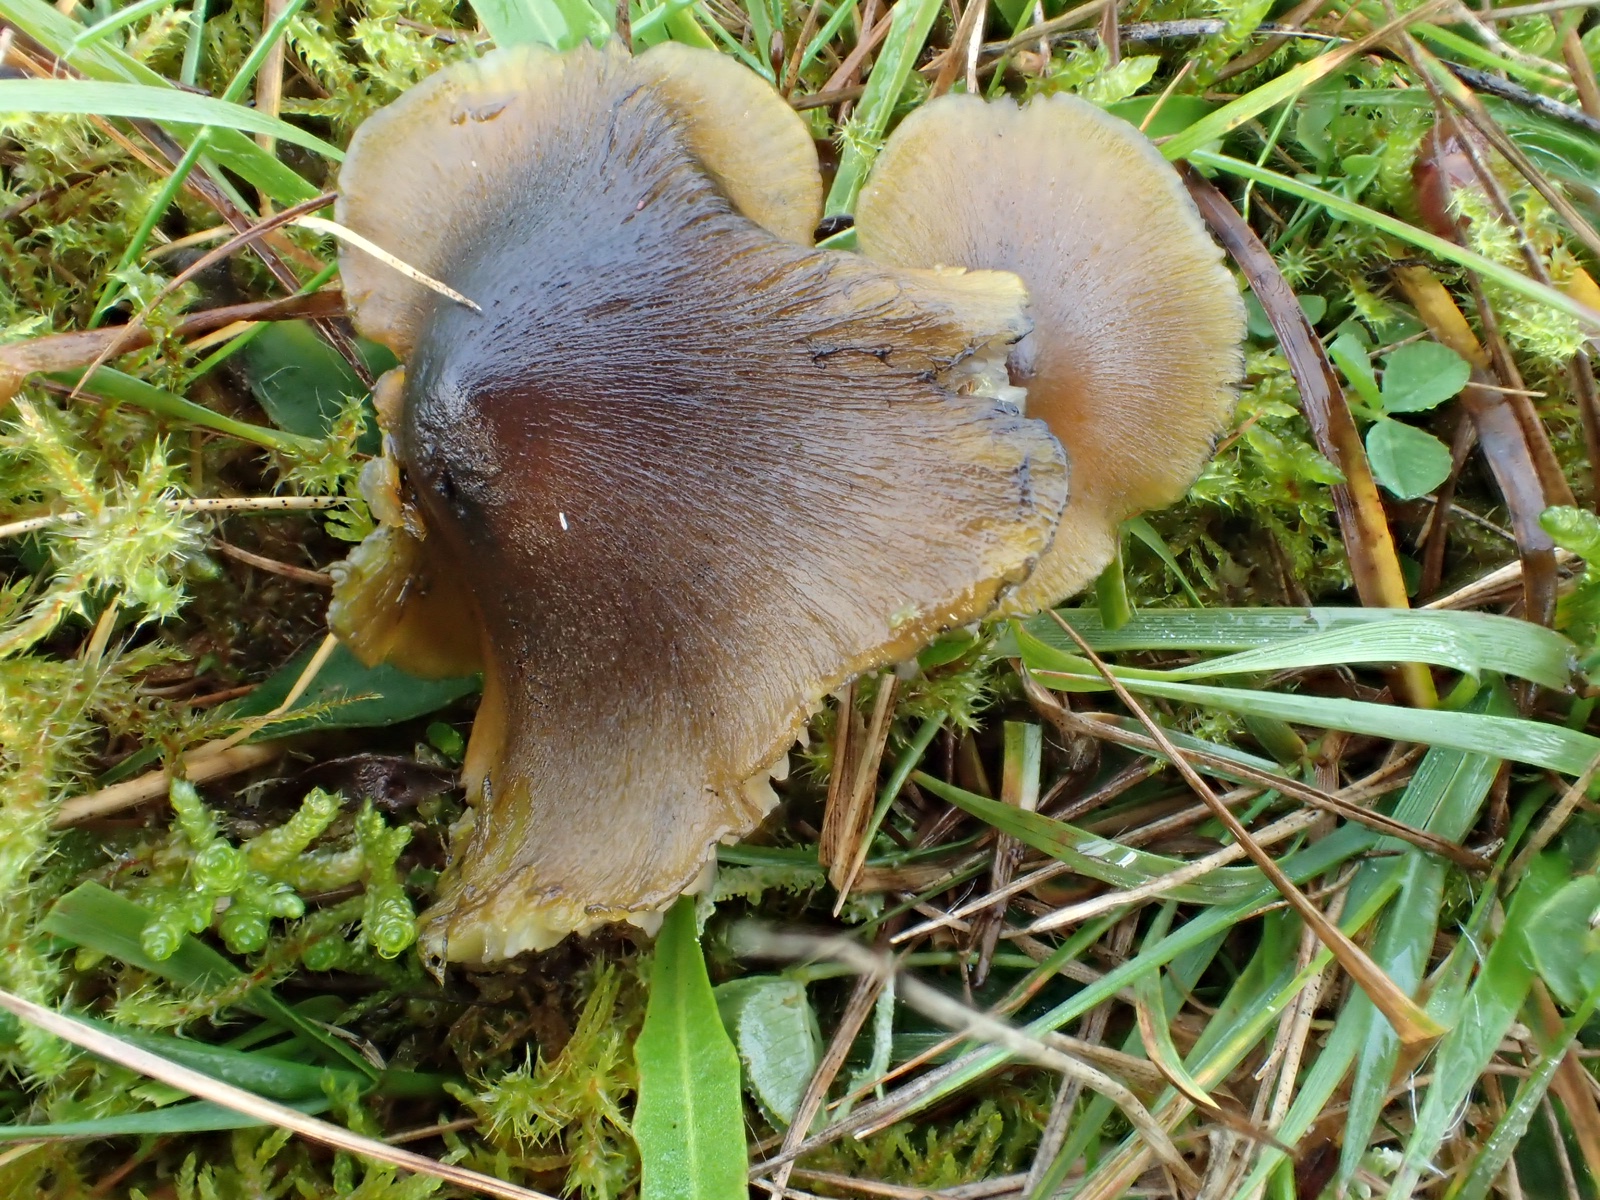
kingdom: Fungi
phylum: Basidiomycota
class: Agaricomycetes
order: Agaricales
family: Hygrophoraceae
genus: Hygrocybe
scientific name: Hygrocybe conica
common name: kegle-vokshat
